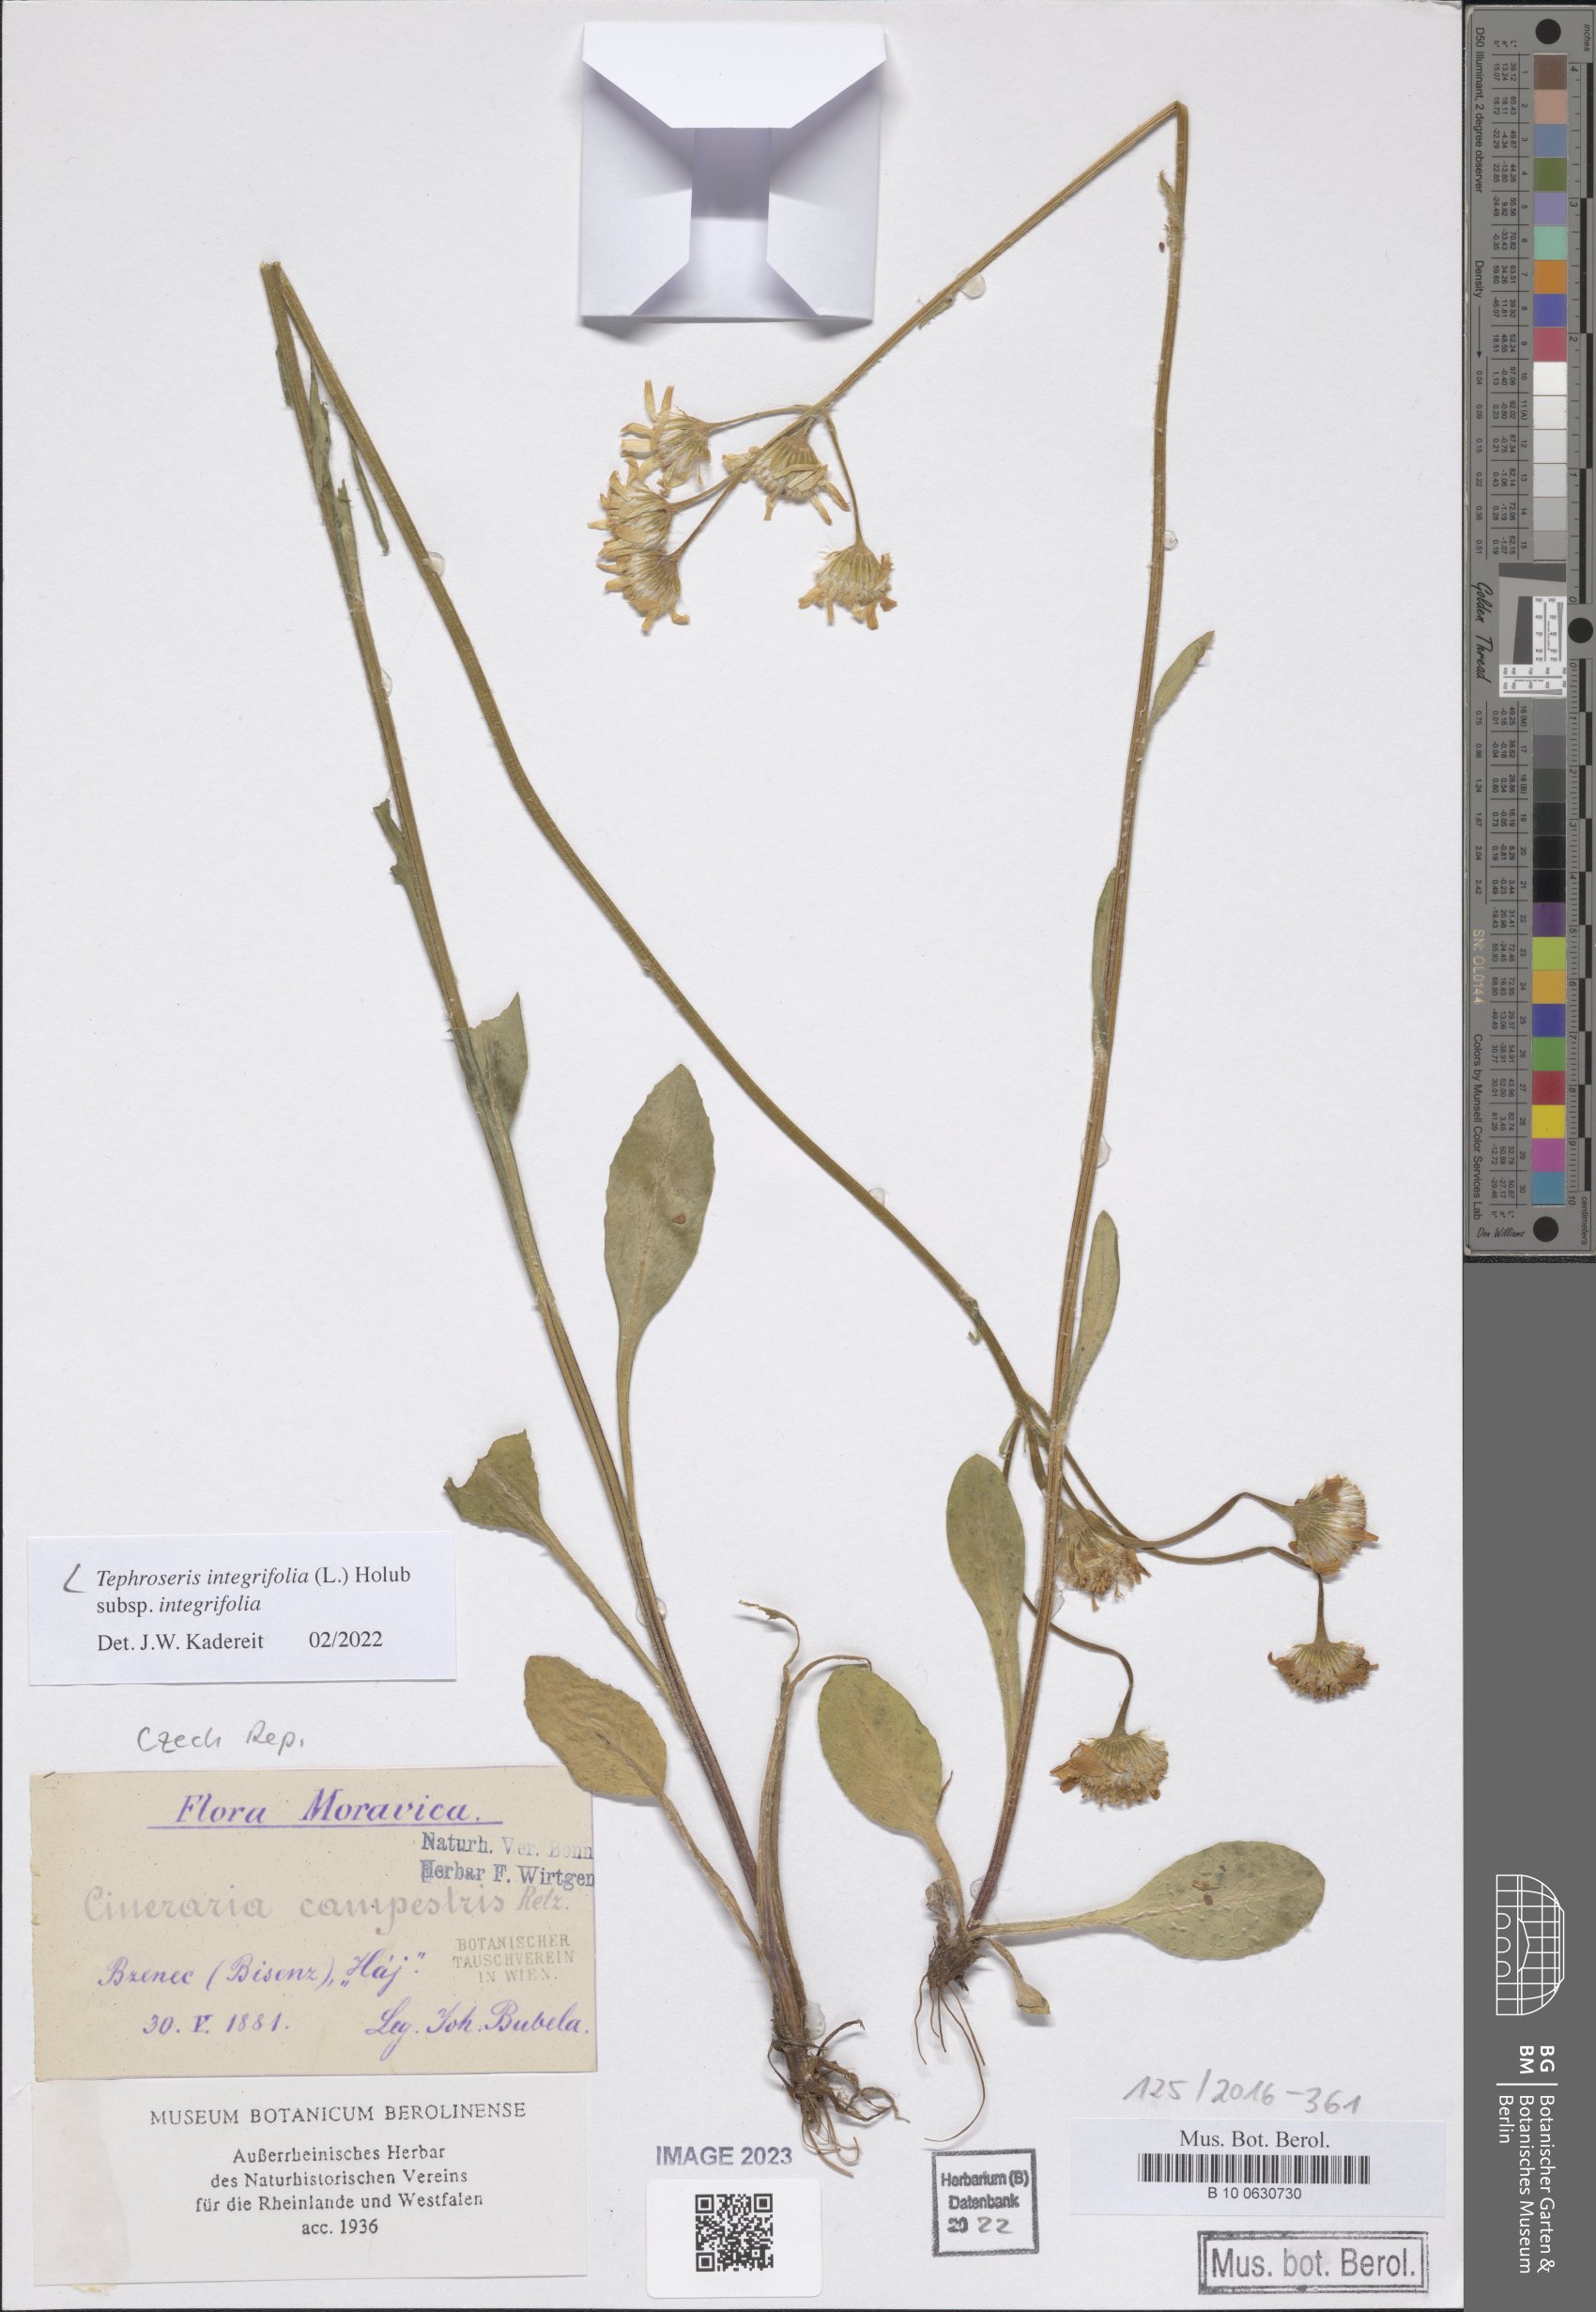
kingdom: Plantae
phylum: Tracheophyta
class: Magnoliopsida
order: Asterales
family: Asteraceae
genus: Tephroseris
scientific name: Tephroseris integrifolia
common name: Field fleawort
